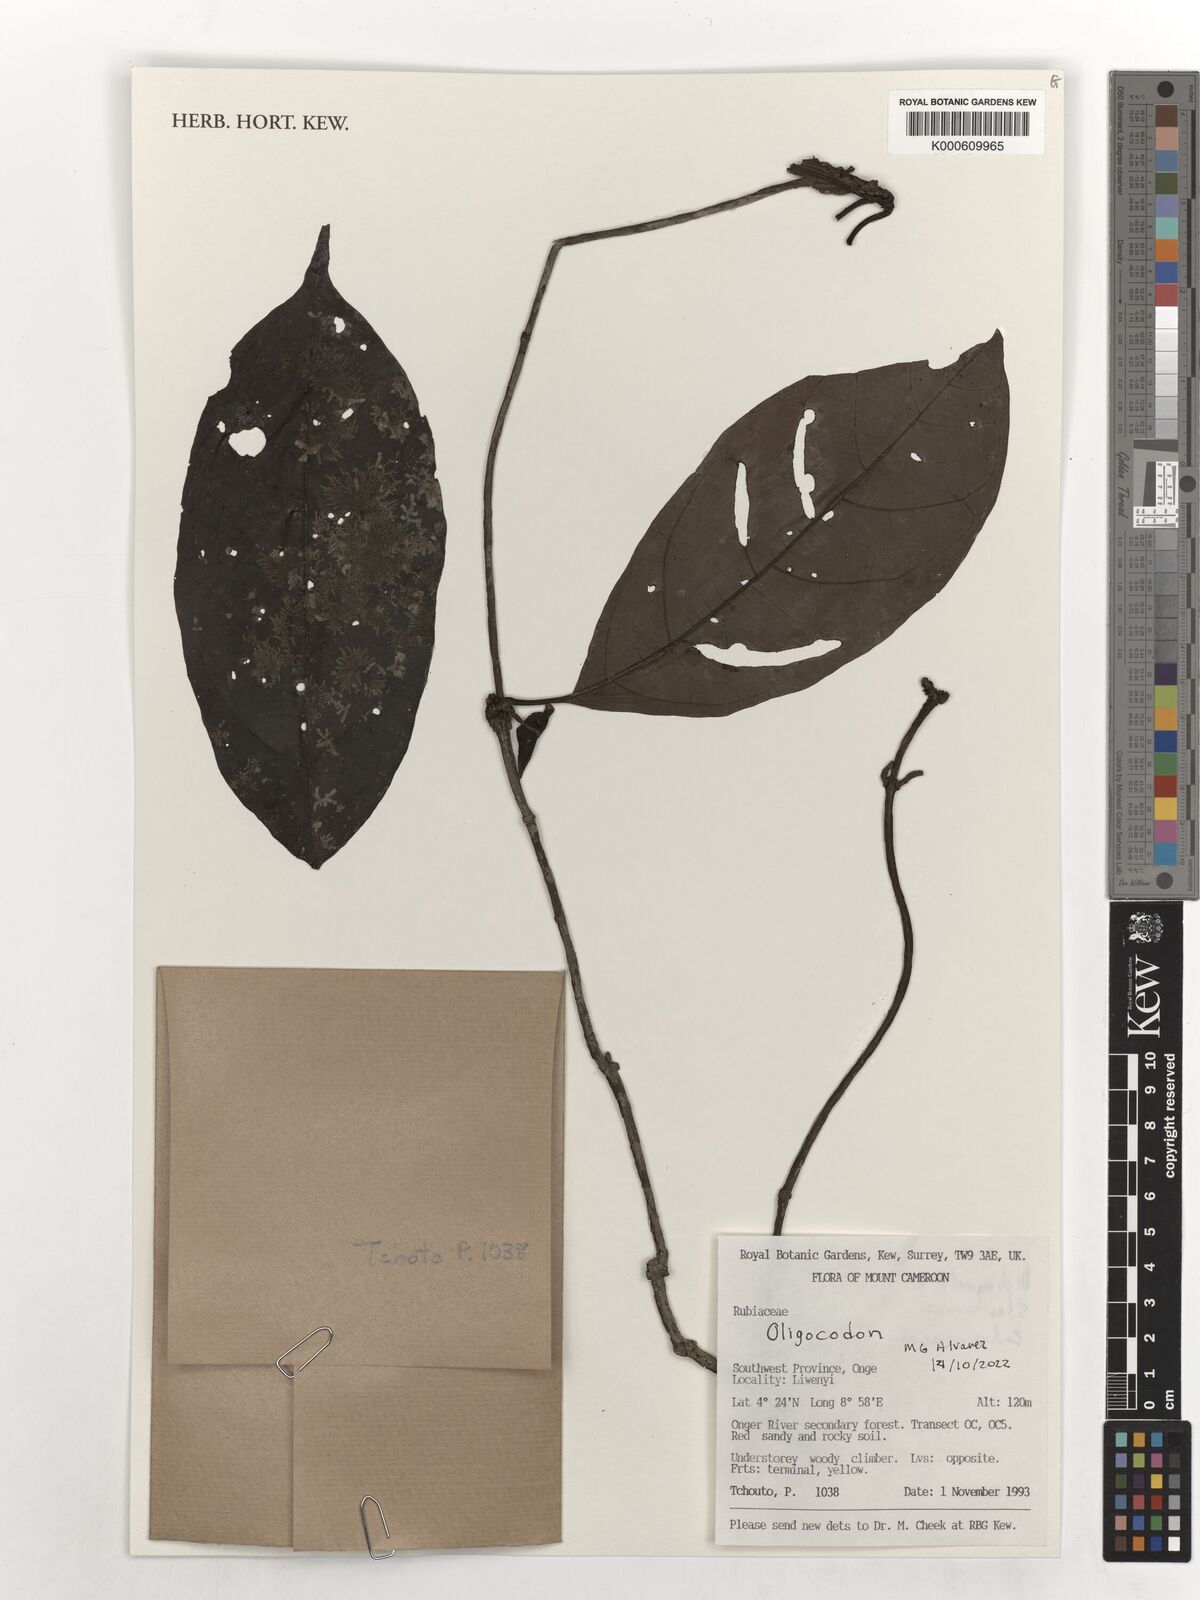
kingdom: Plantae
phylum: Tracheophyta
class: Magnoliopsida
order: Gentianales
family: Rubiaceae
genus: Oligocodon
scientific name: Oligocodon
